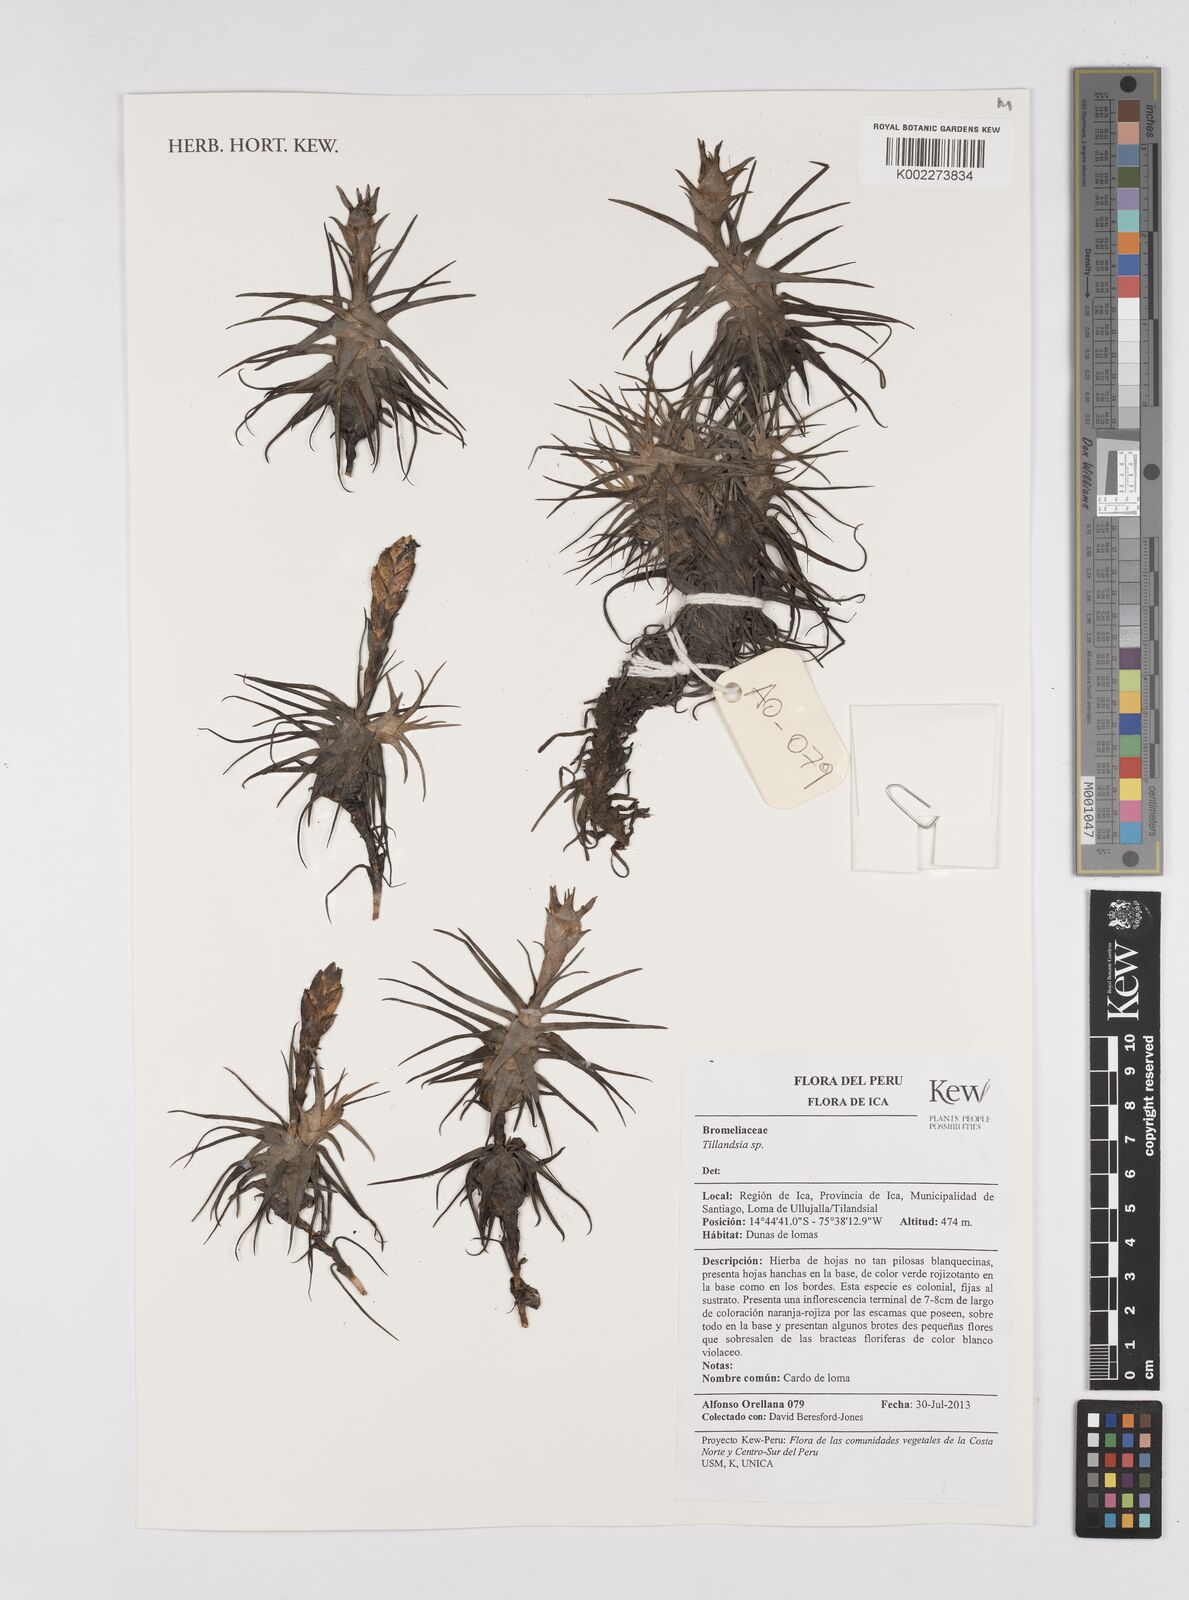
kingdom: Plantae
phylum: Tracheophyta
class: Liliopsida
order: Poales
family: Bromeliaceae
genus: Tillandsia
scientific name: Tillandsia
